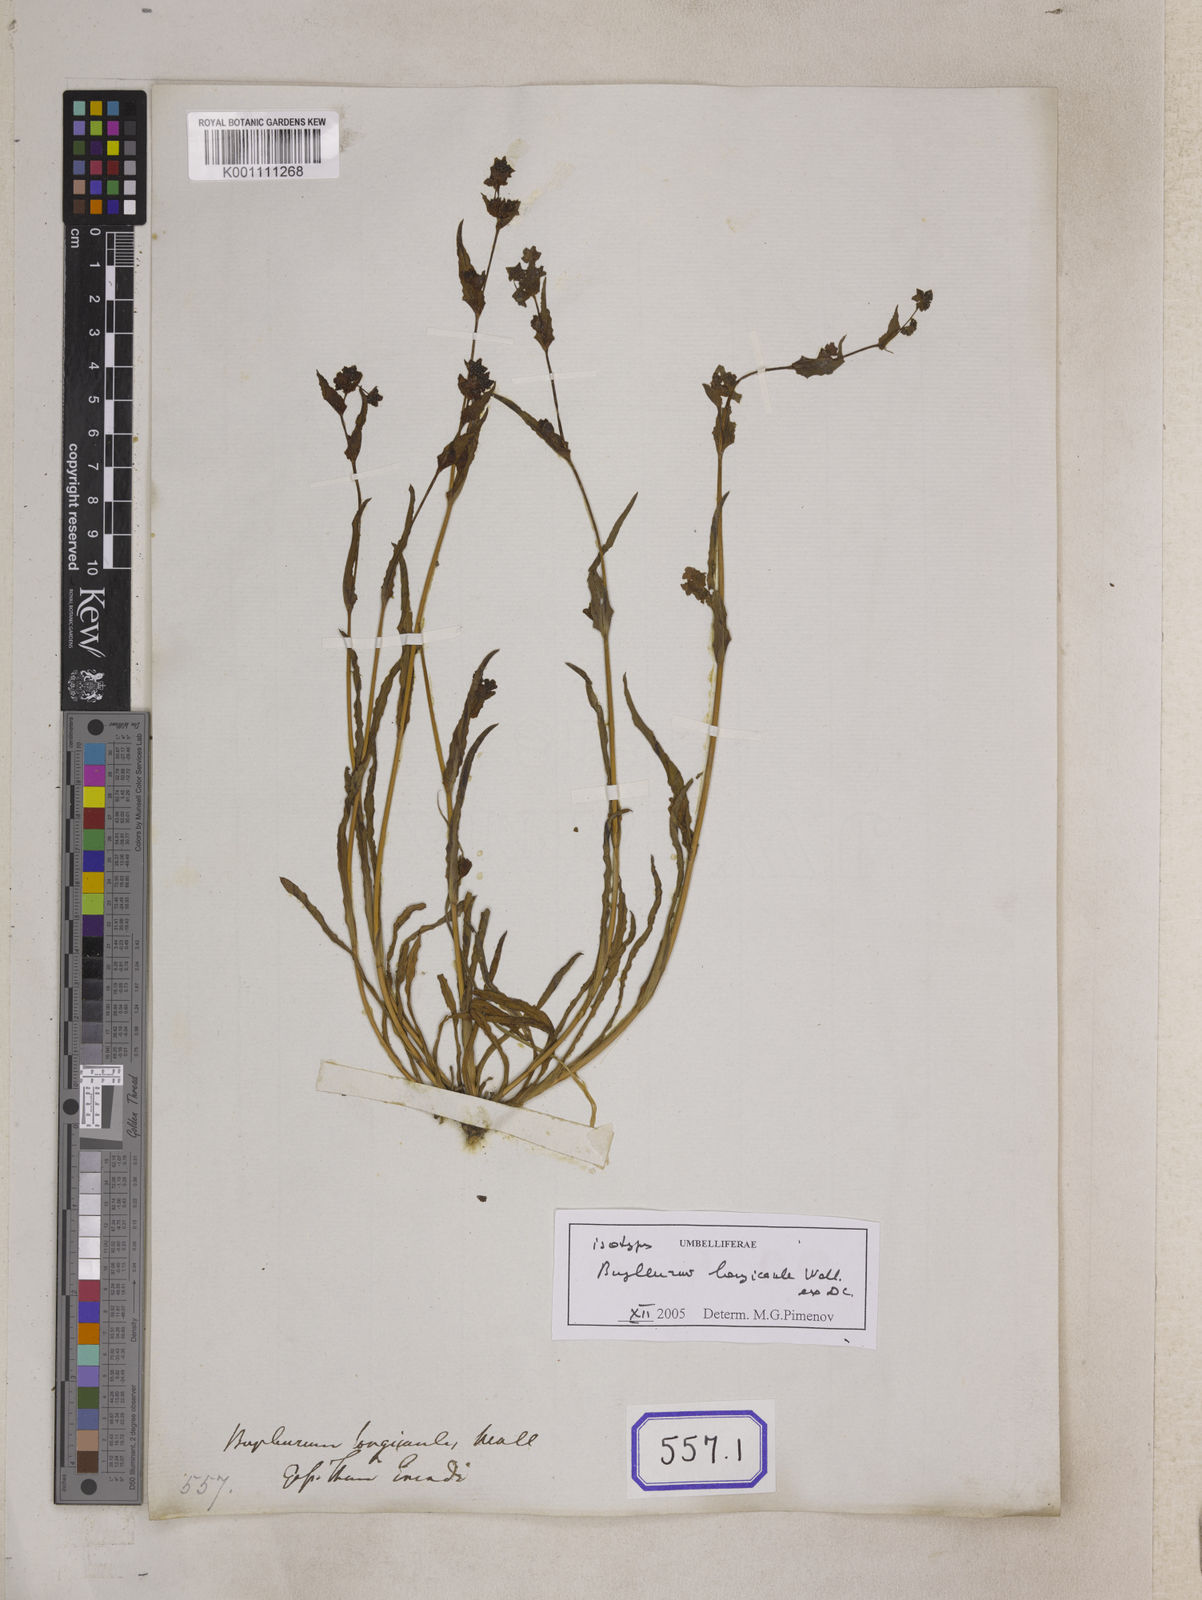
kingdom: Plantae
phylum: Tracheophyta
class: Magnoliopsida
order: Apiales
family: Apiaceae
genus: Bupleurum
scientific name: Bupleurum
